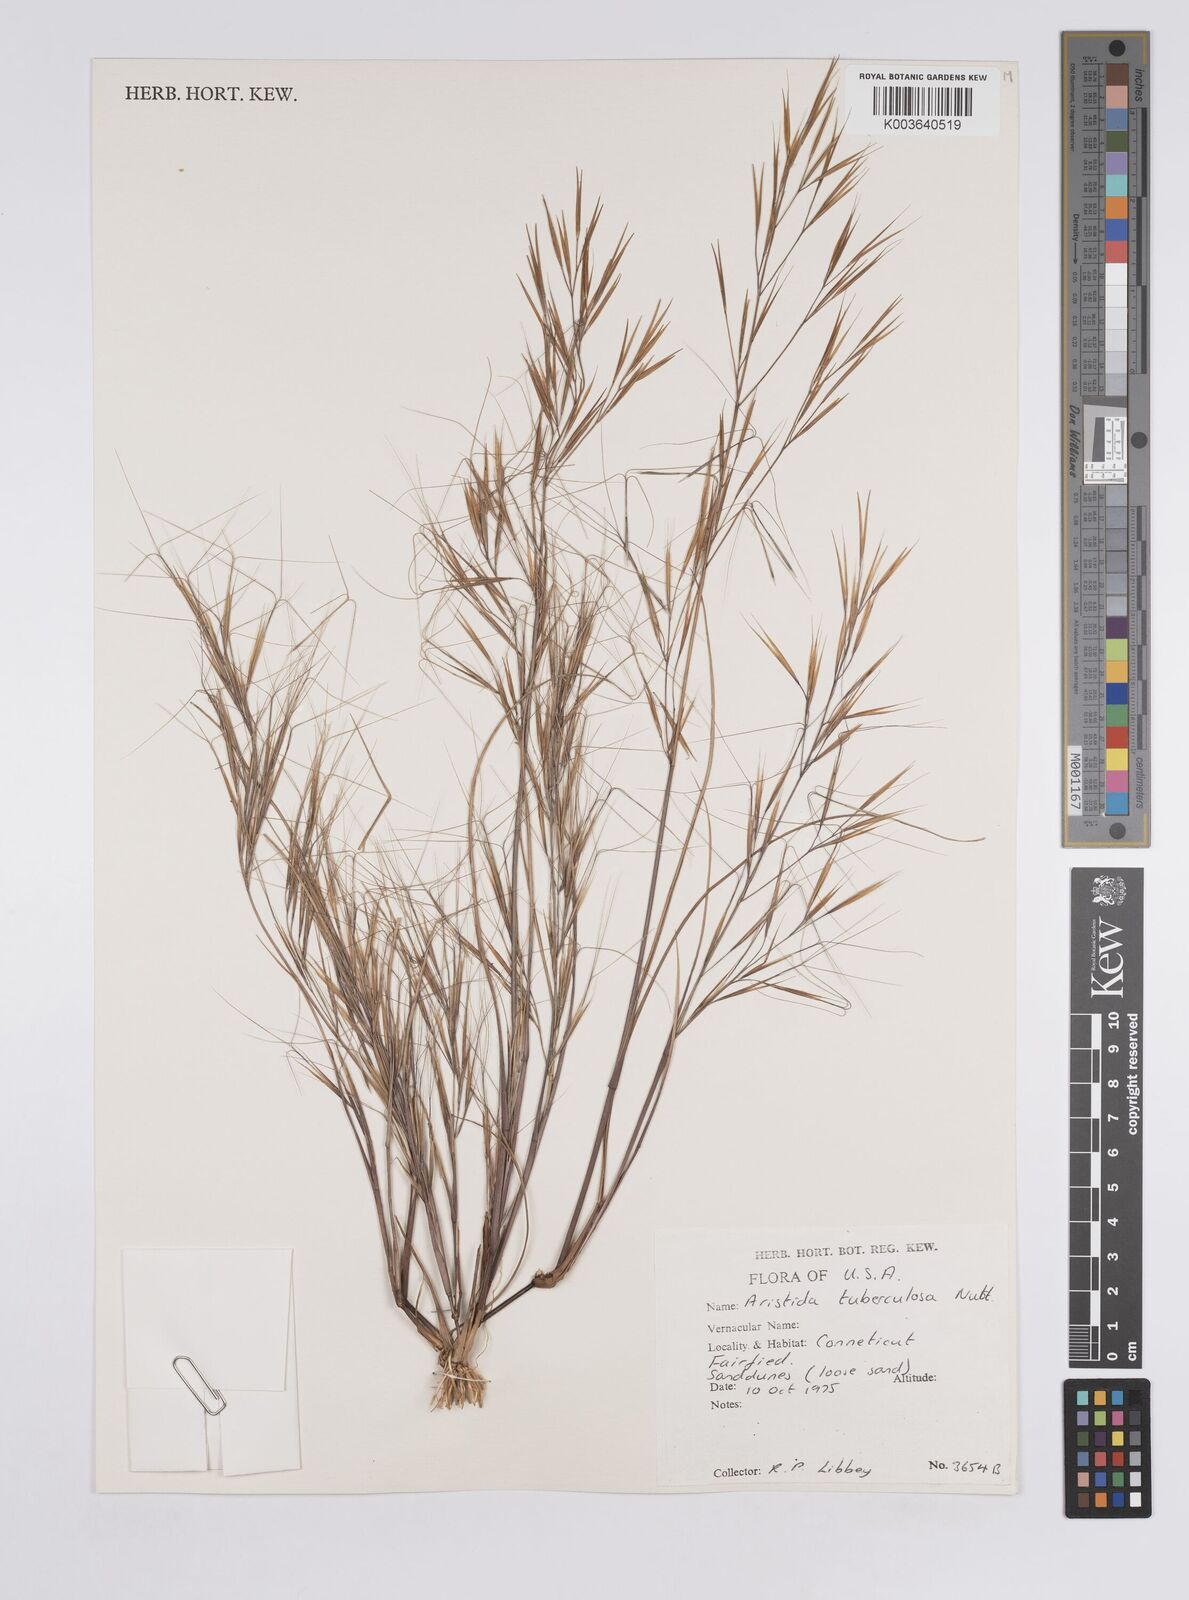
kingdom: Plantae
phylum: Tracheophyta
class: Liliopsida
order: Poales
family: Poaceae
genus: Aristida
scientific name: Aristida tuberculosa
